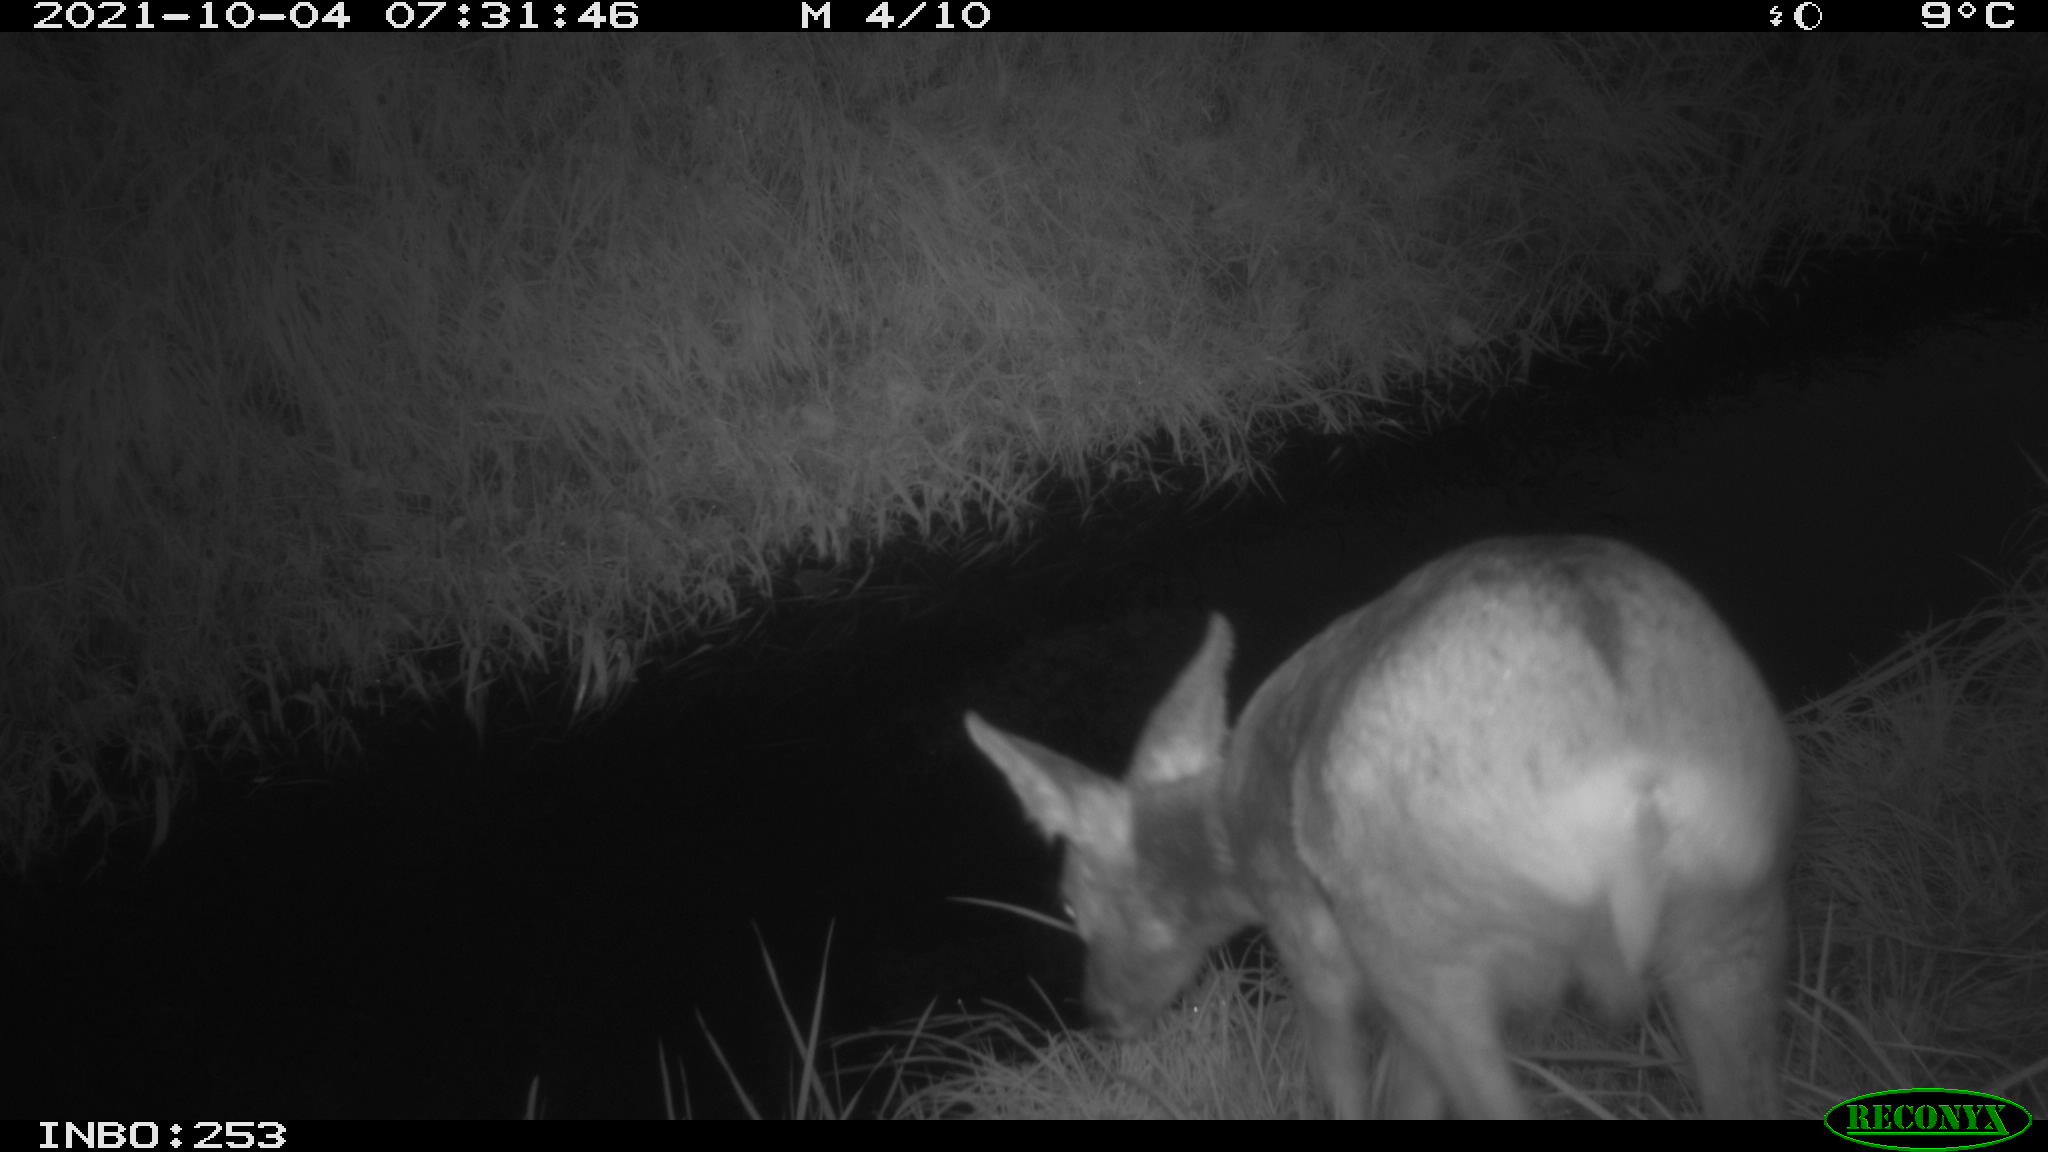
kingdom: Animalia
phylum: Chordata
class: Mammalia
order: Artiodactyla
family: Cervidae
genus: Capreolus
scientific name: Capreolus capreolus
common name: Western roe deer
